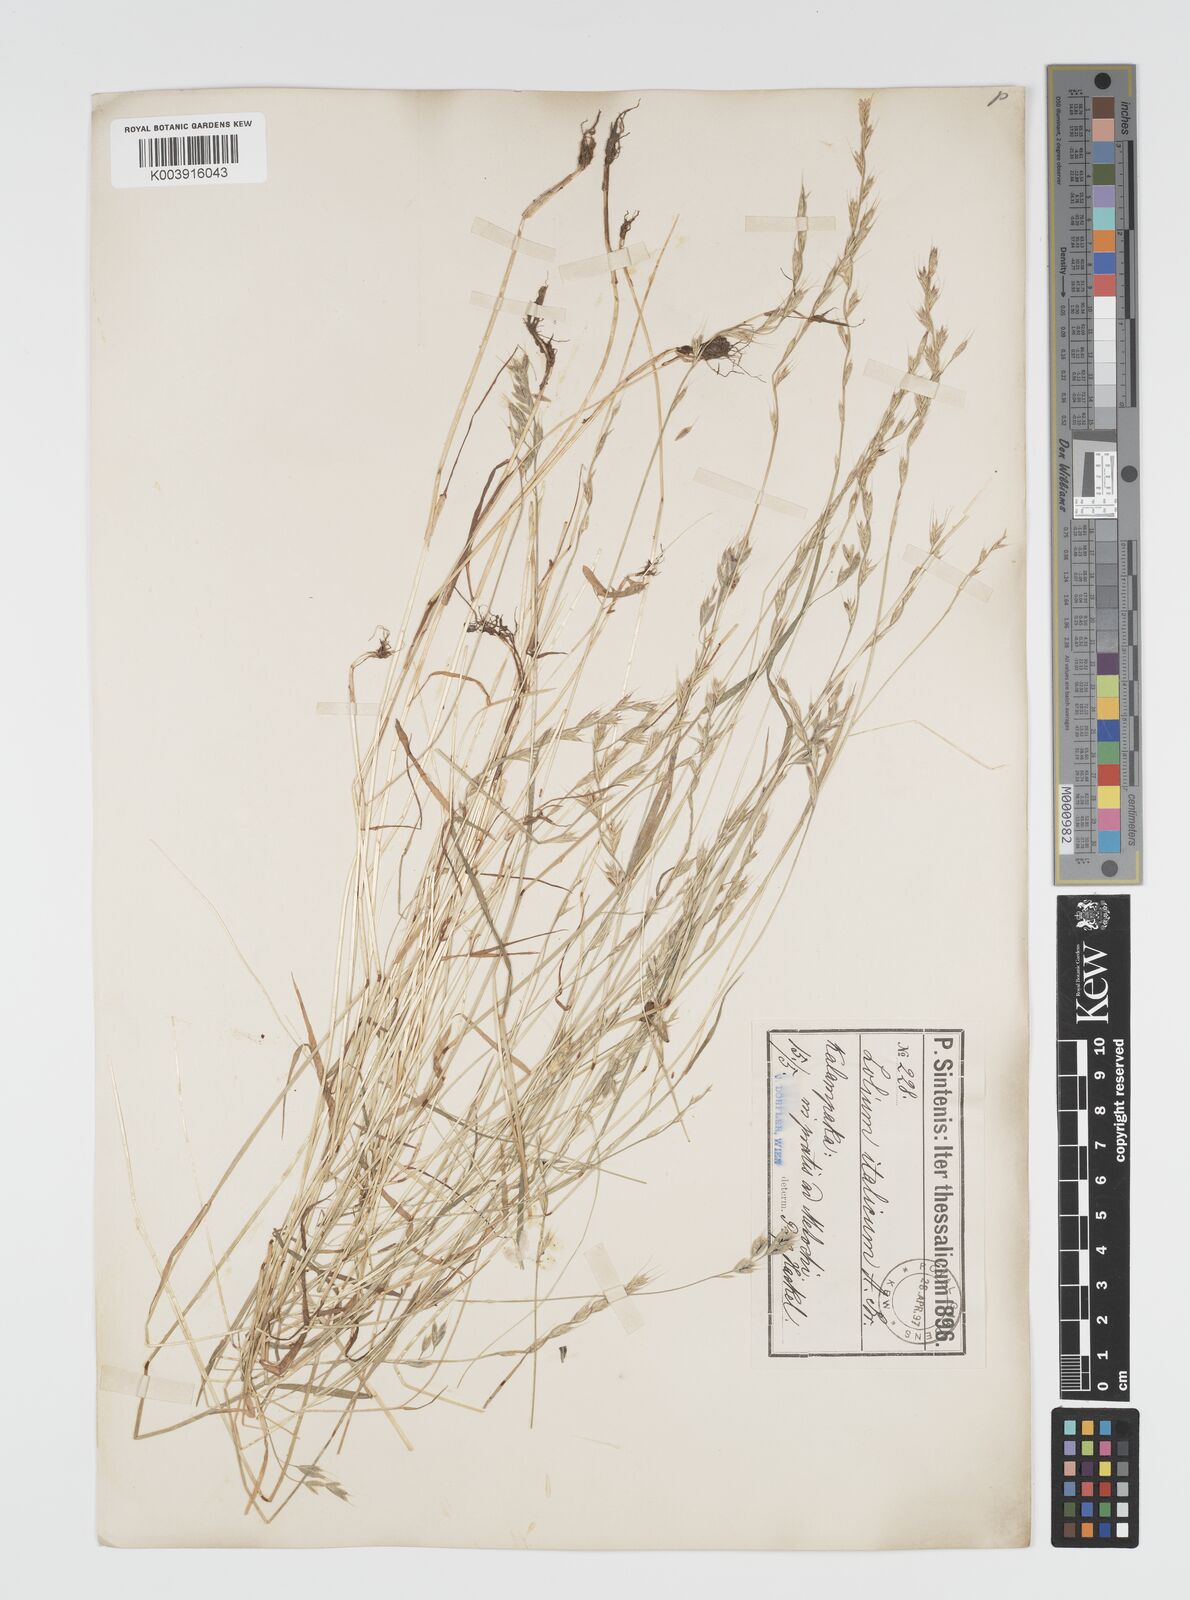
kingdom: Plantae
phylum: Tracheophyta
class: Liliopsida
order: Poales
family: Poaceae
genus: Lolium
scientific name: Lolium multiflorum
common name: Annual ryegrass
